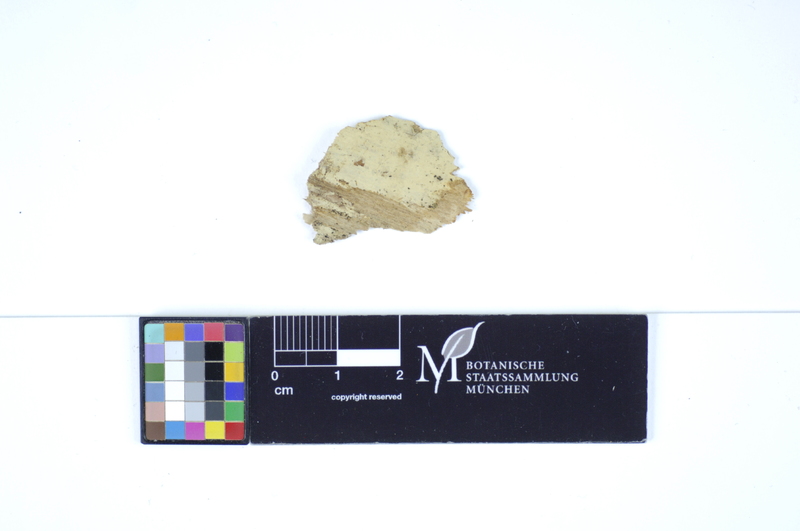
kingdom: Plantae
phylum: Tracheophyta
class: Magnoliopsida
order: Fagales
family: Fagaceae
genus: Quercus
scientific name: Quercus robur
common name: Pedunculate oak
